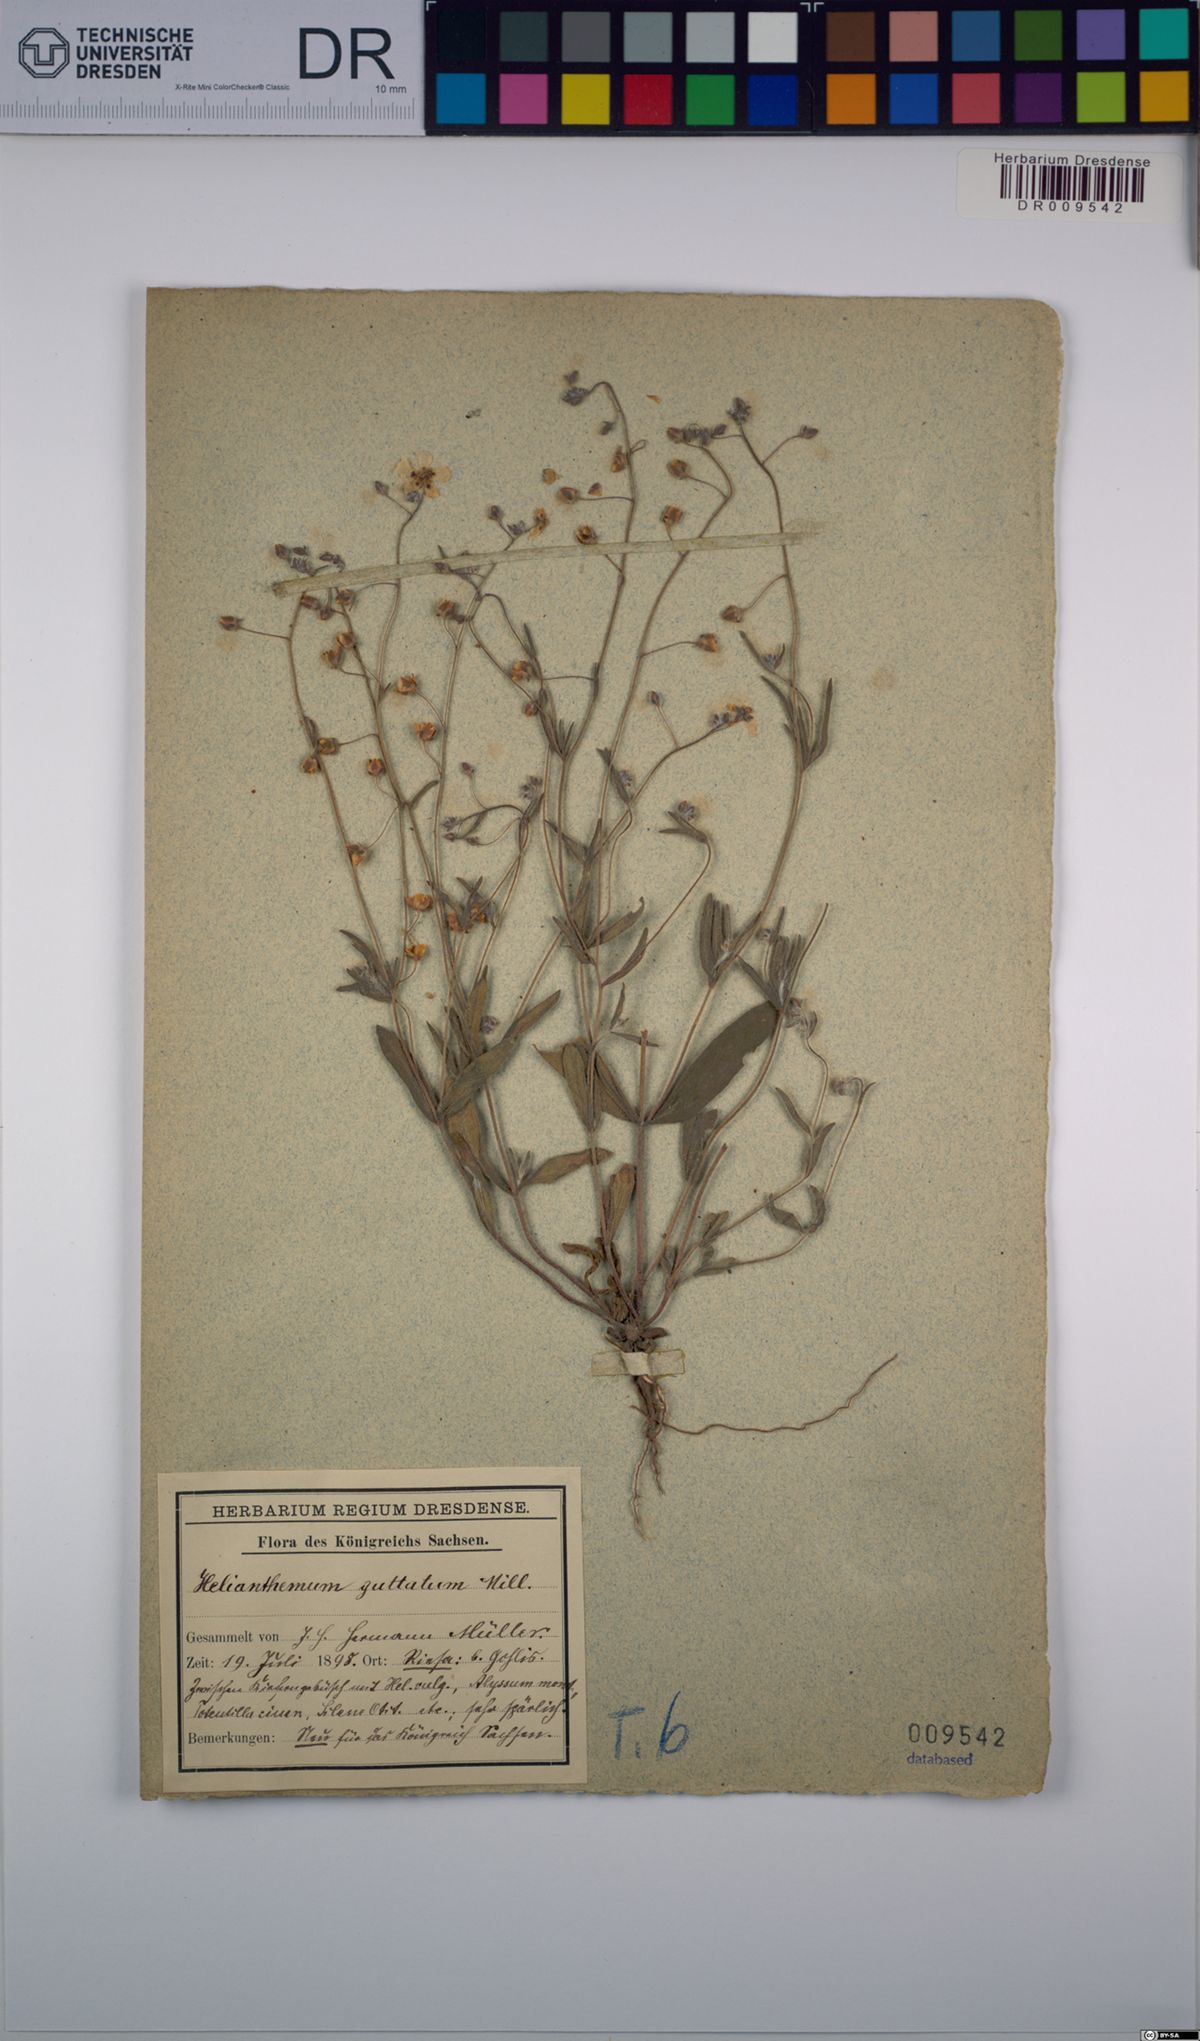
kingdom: Plantae
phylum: Tracheophyta
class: Magnoliopsida
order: Malvales
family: Cistaceae
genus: Tuberaria
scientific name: Tuberaria guttata
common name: Spotted rock-rose
